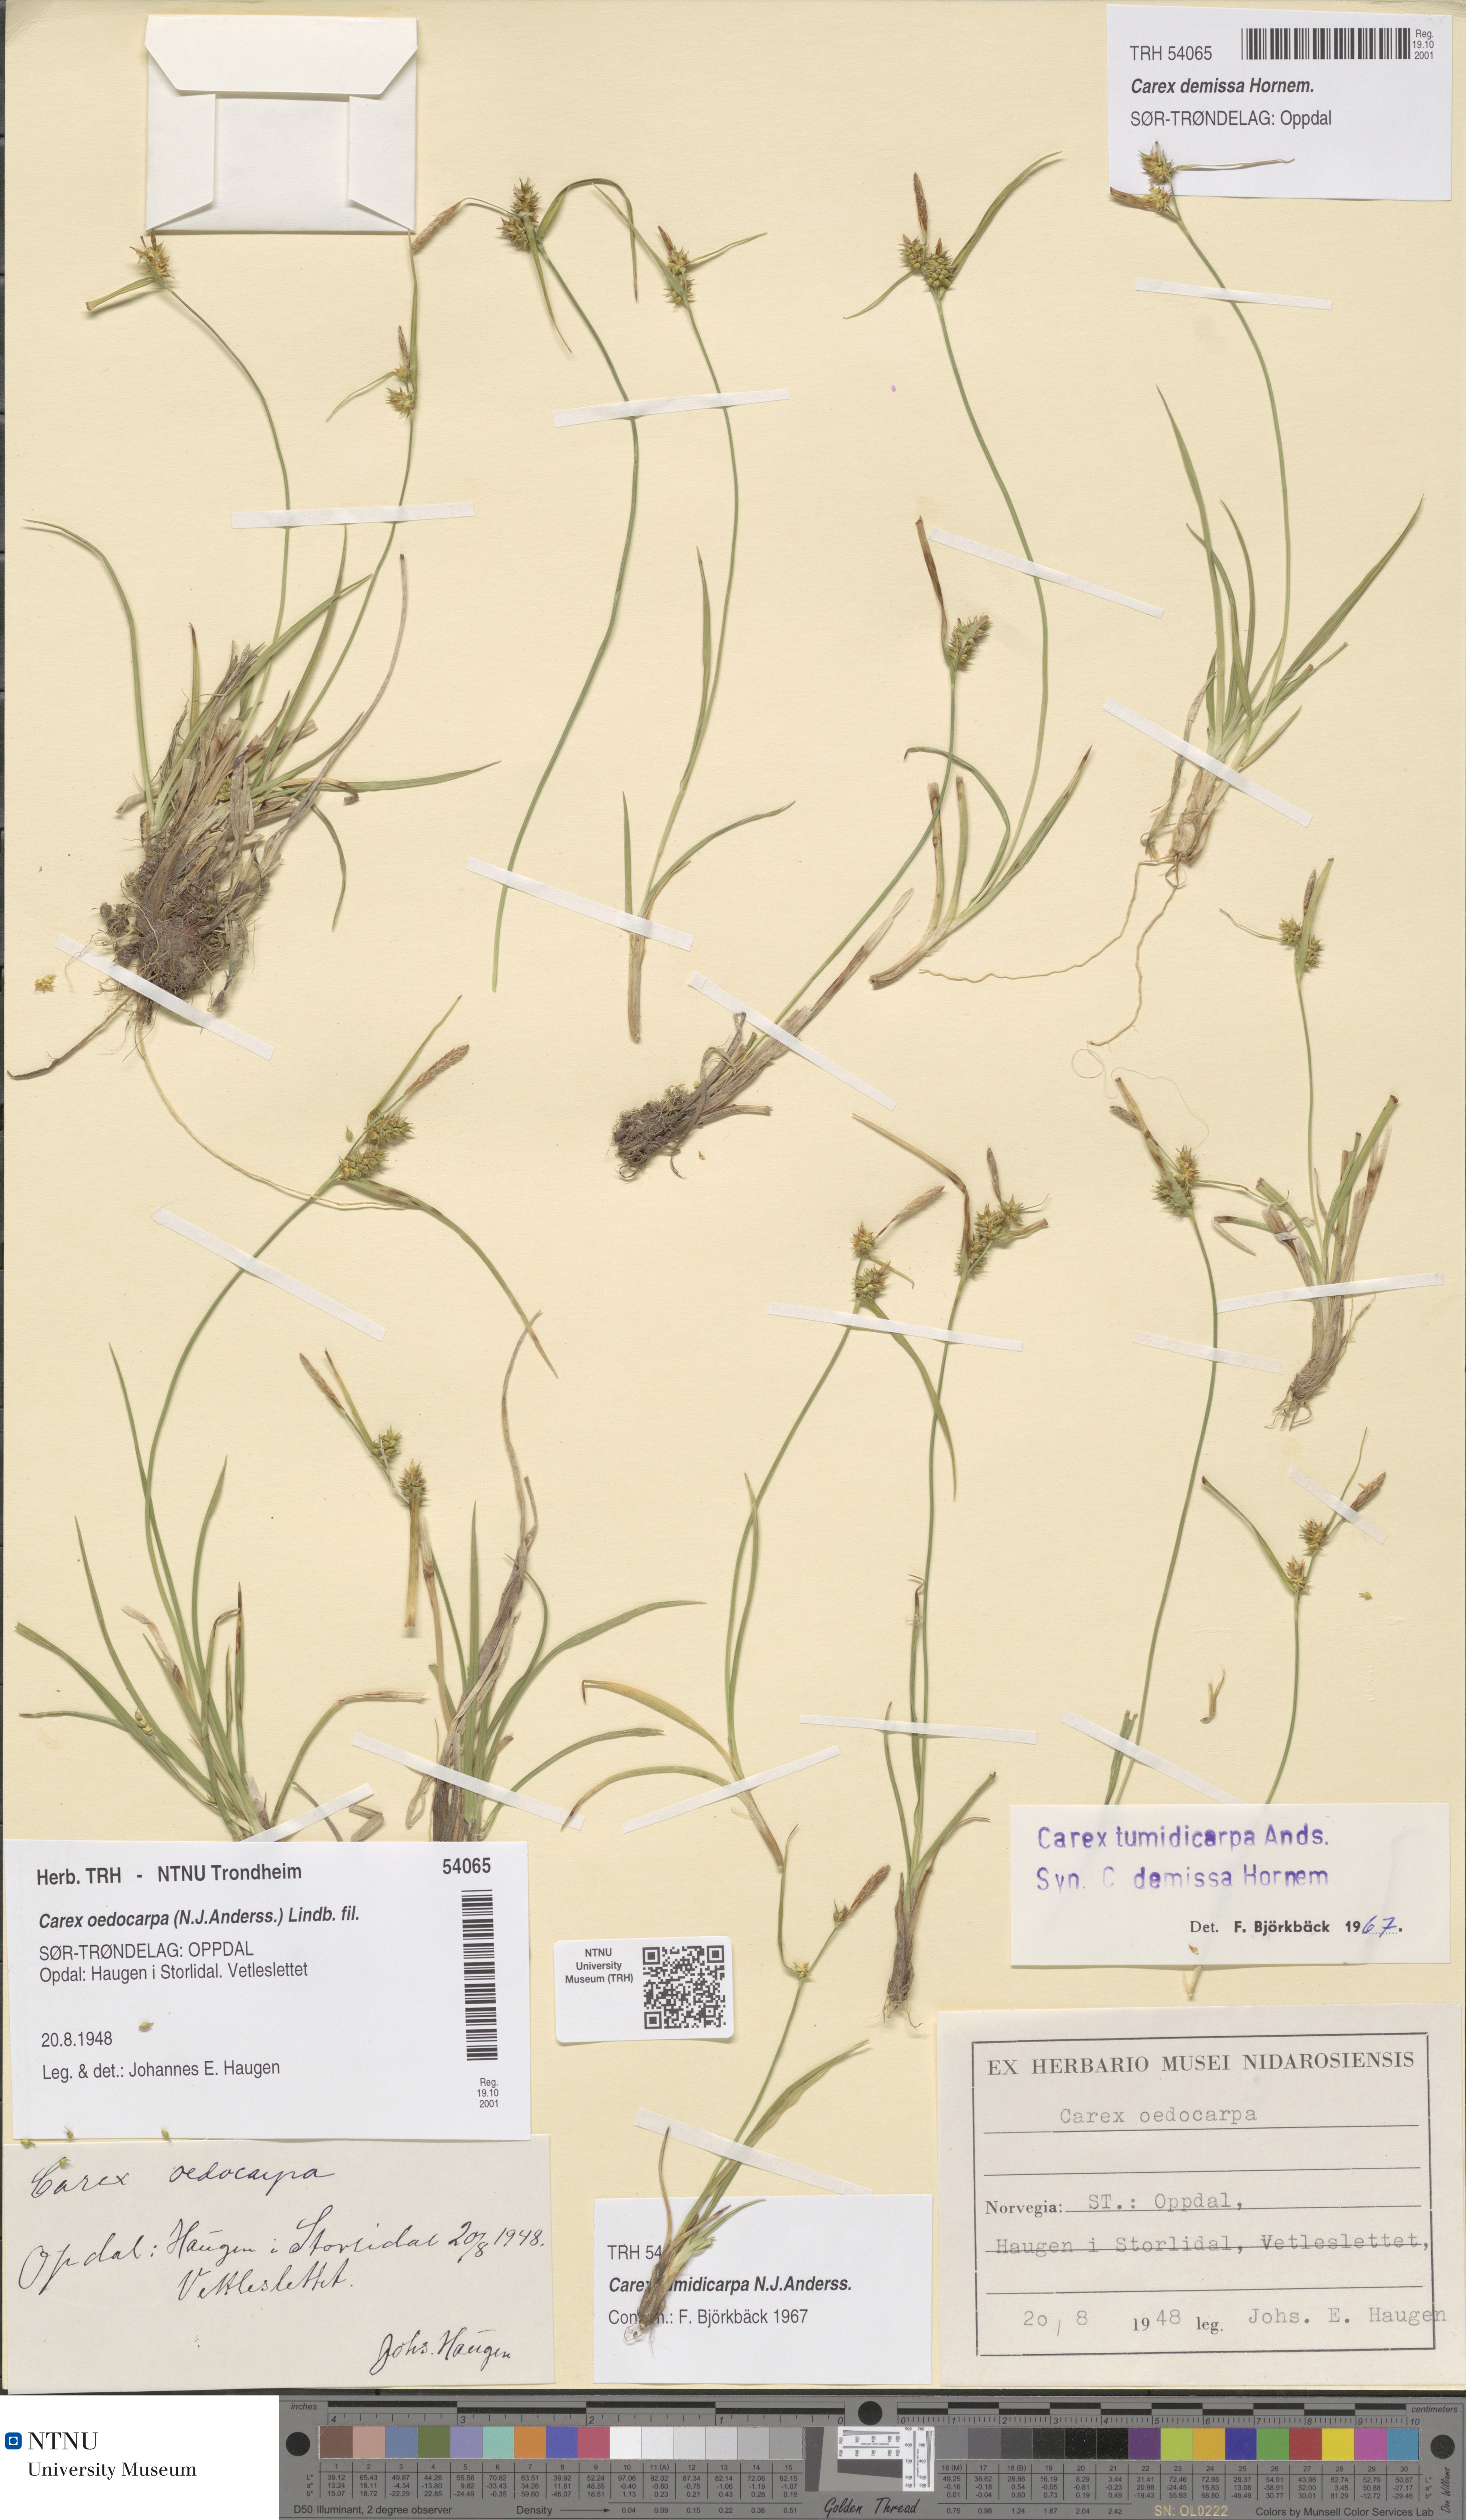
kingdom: Plantae
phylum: Tracheophyta
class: Liliopsida
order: Poales
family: Cyperaceae
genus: Carex
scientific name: Carex demissa
